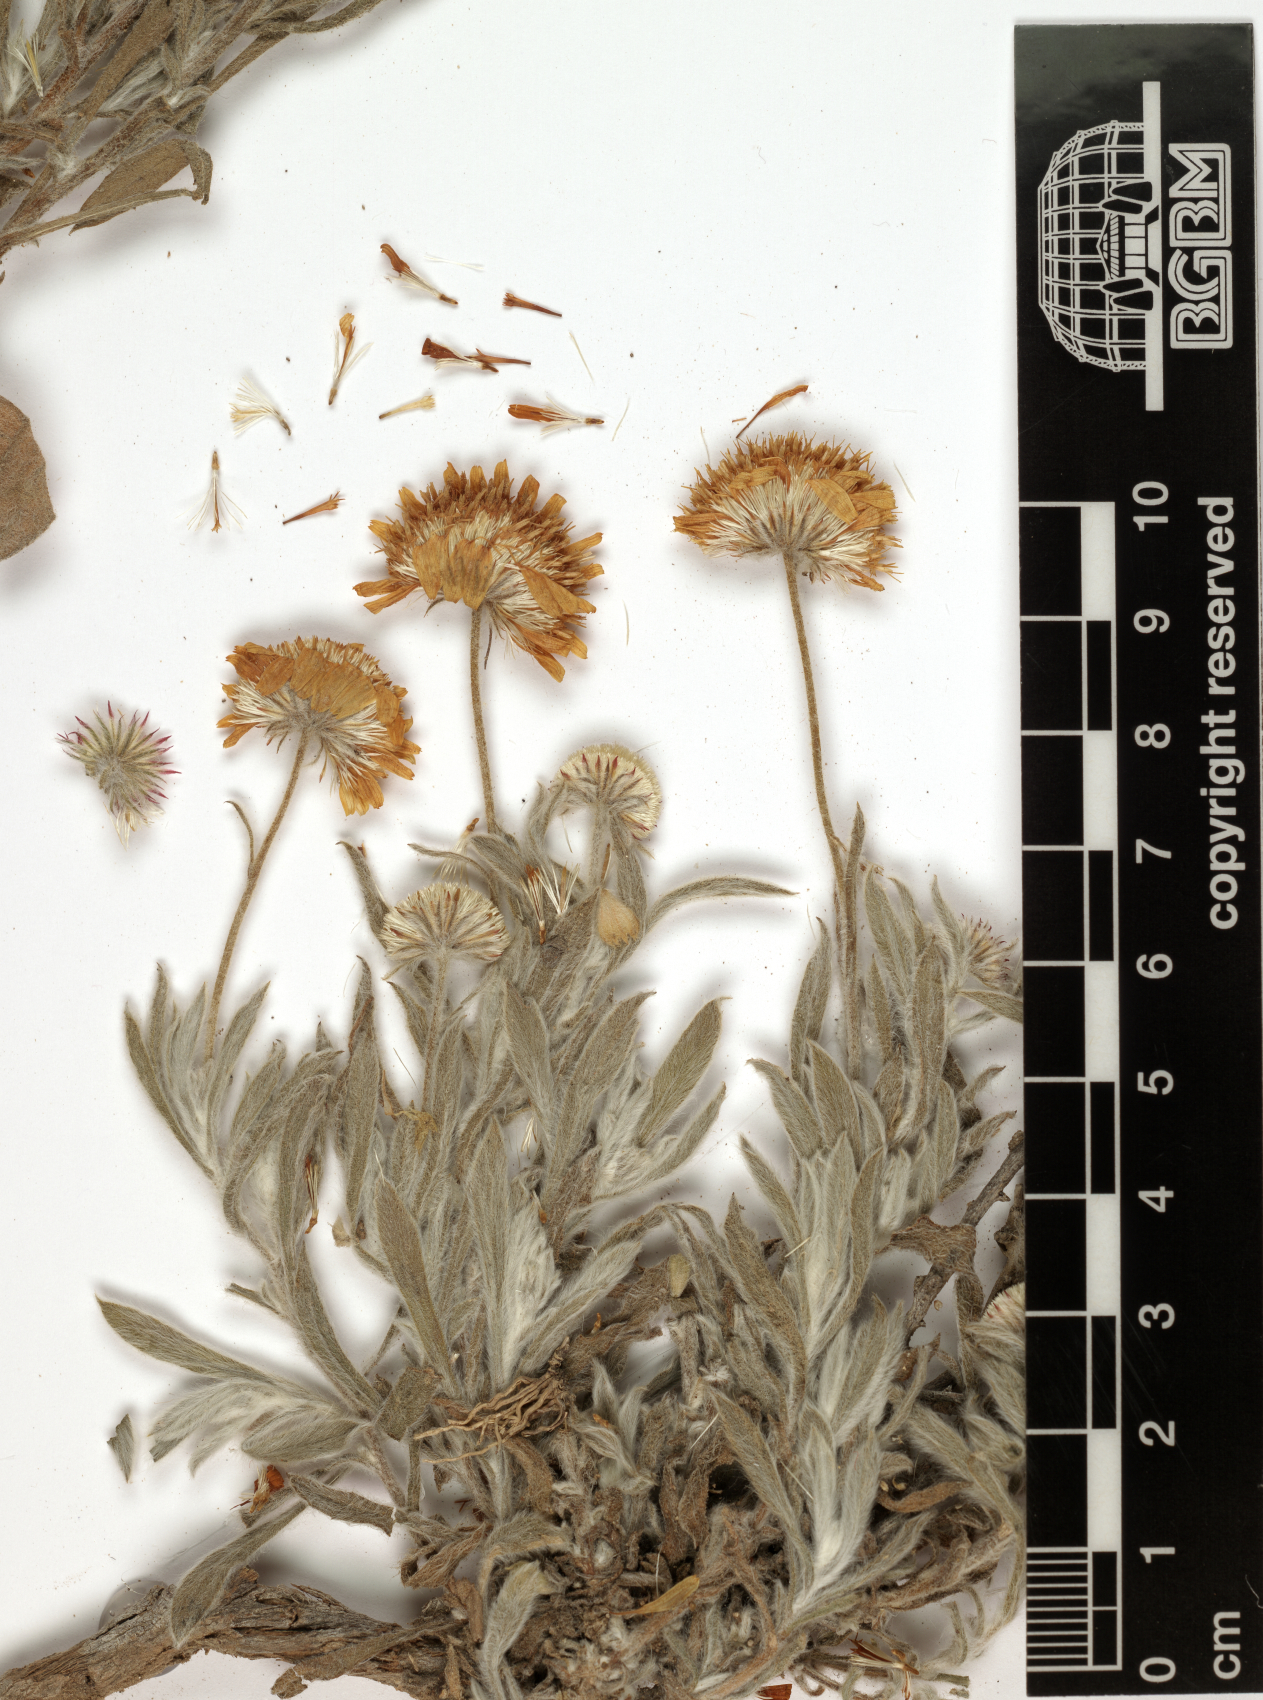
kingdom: Plantae
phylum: Tracheophyta
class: Magnoliopsida
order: Asterales
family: Asteraceae
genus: Pulicaria
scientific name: Pulicaria nivea
